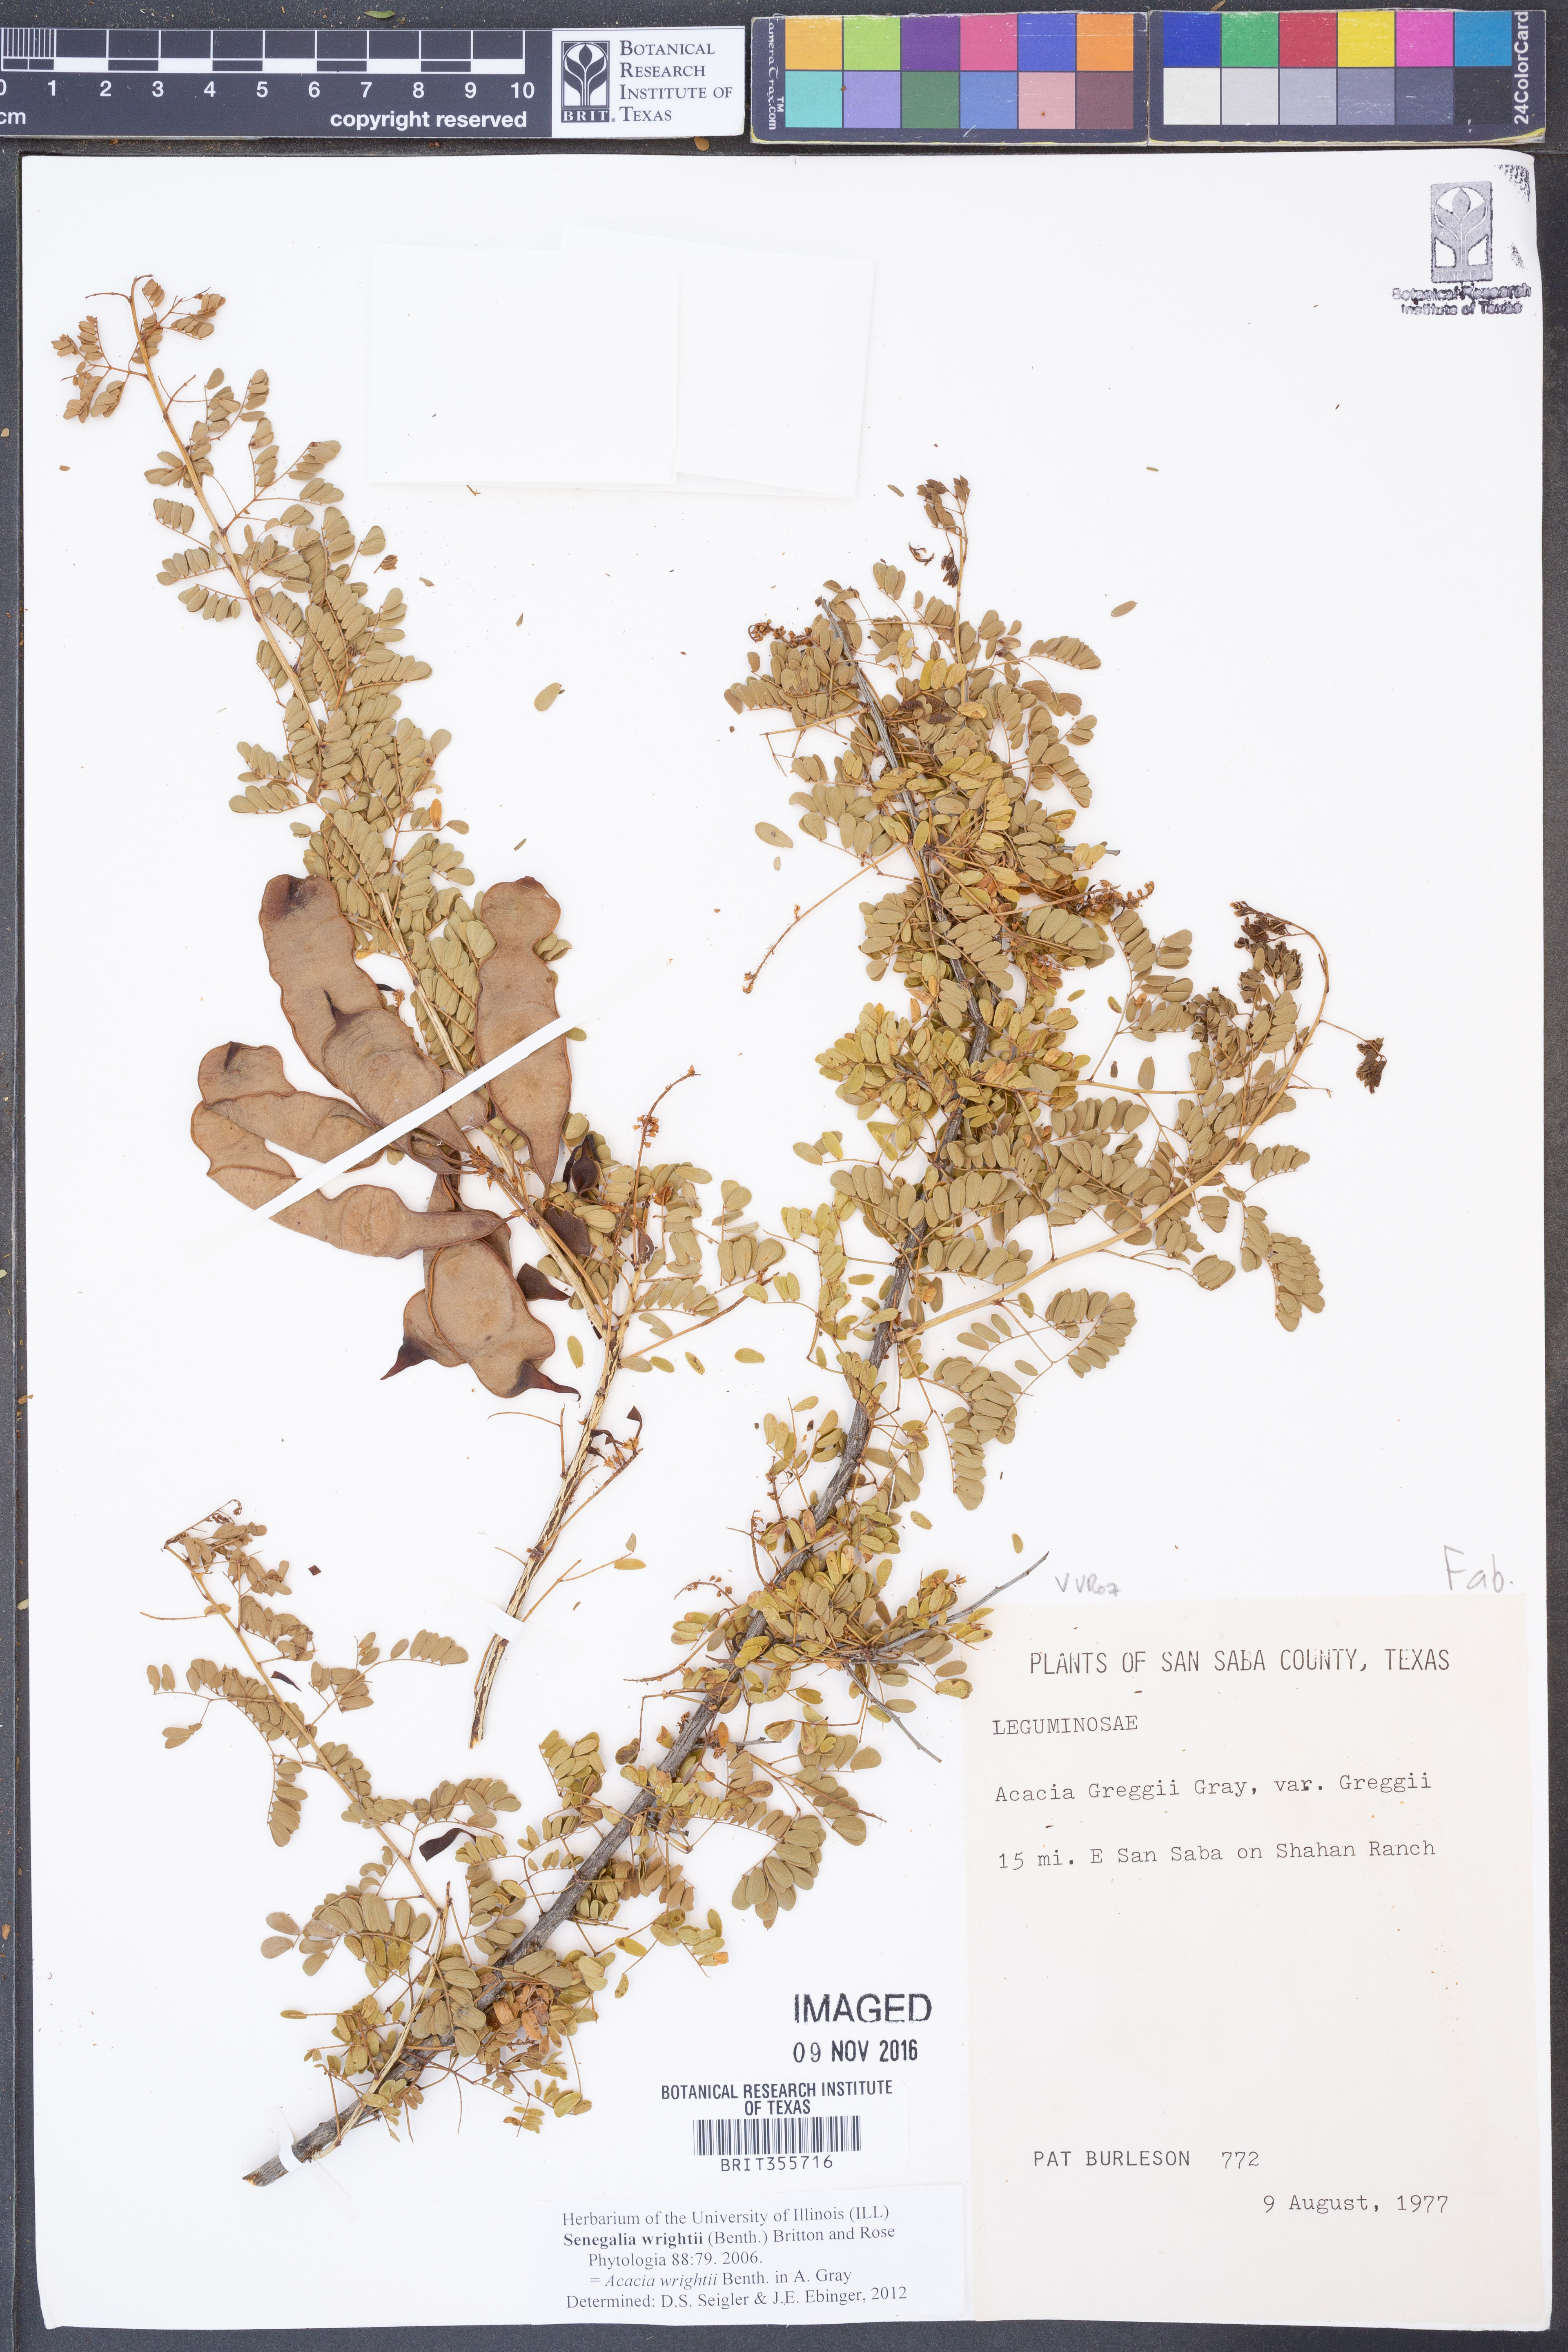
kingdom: Plantae
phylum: Tracheophyta
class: Magnoliopsida
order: Fabales
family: Fabaceae
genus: Senegalia
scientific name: Senegalia wrightii
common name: Texas cat's-claw
